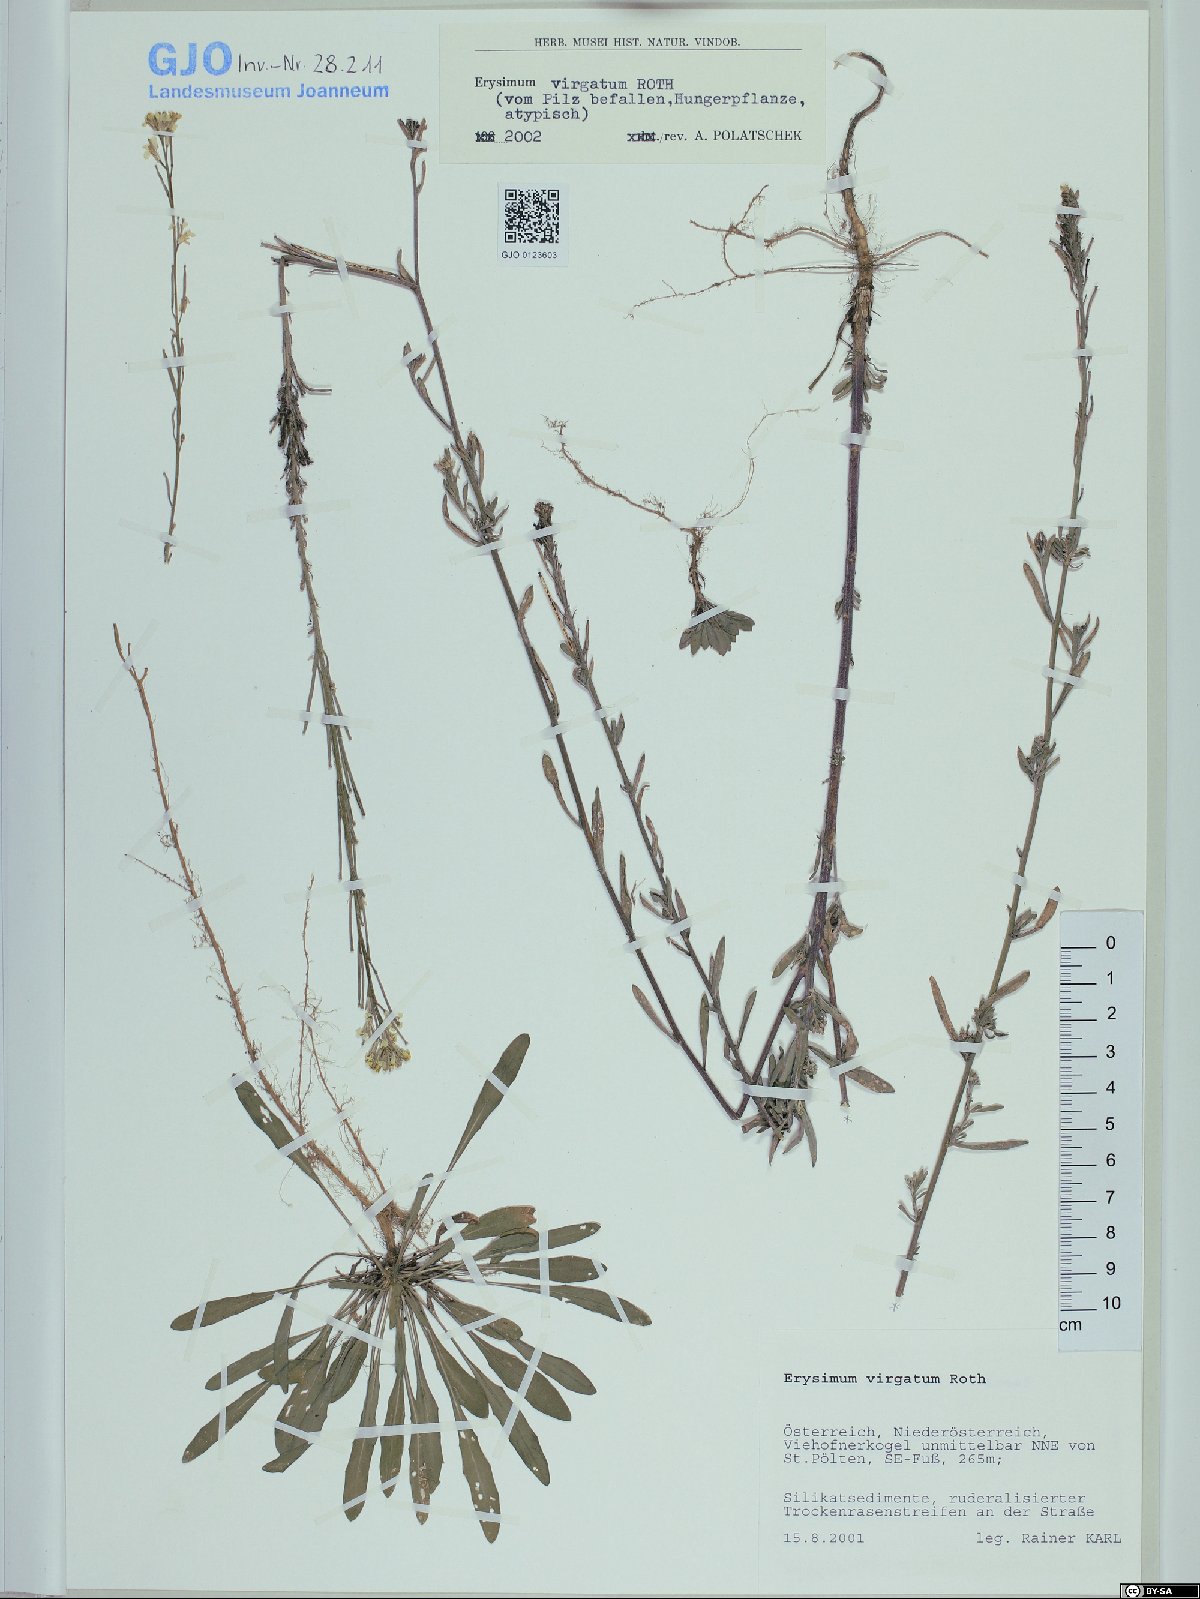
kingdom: Plantae
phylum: Tracheophyta
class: Magnoliopsida
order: Brassicales
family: Brassicaceae
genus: Erysimum
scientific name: Erysimum virgatum
